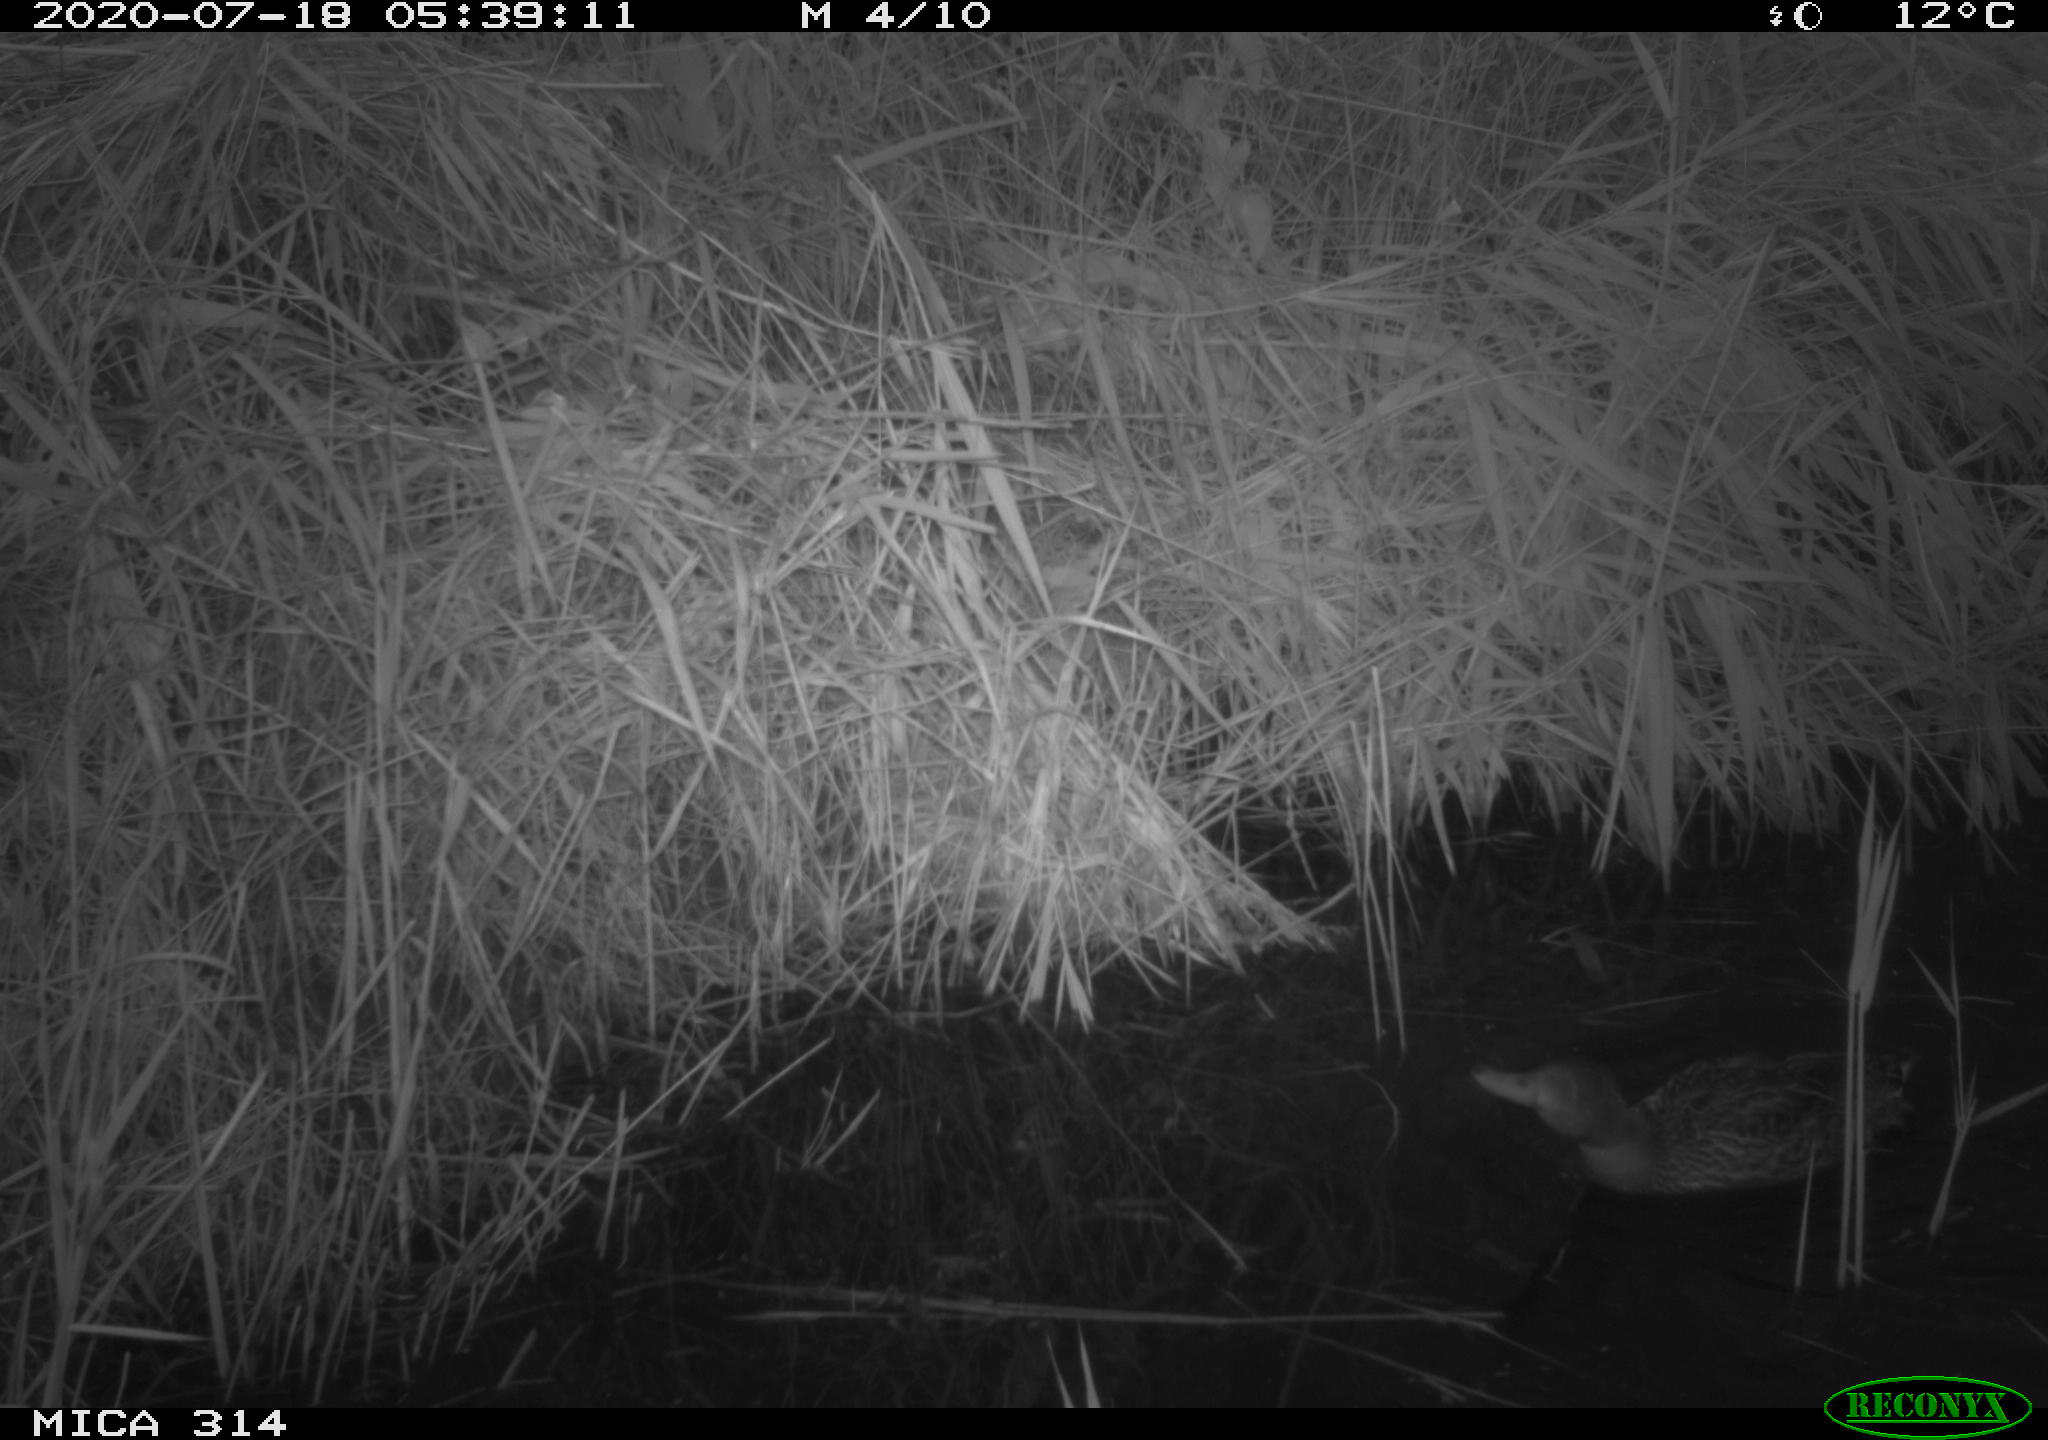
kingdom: Animalia
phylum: Chordata
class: Aves
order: Anseriformes
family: Anatidae
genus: Anas
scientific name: Anas platyrhynchos
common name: Mallard
